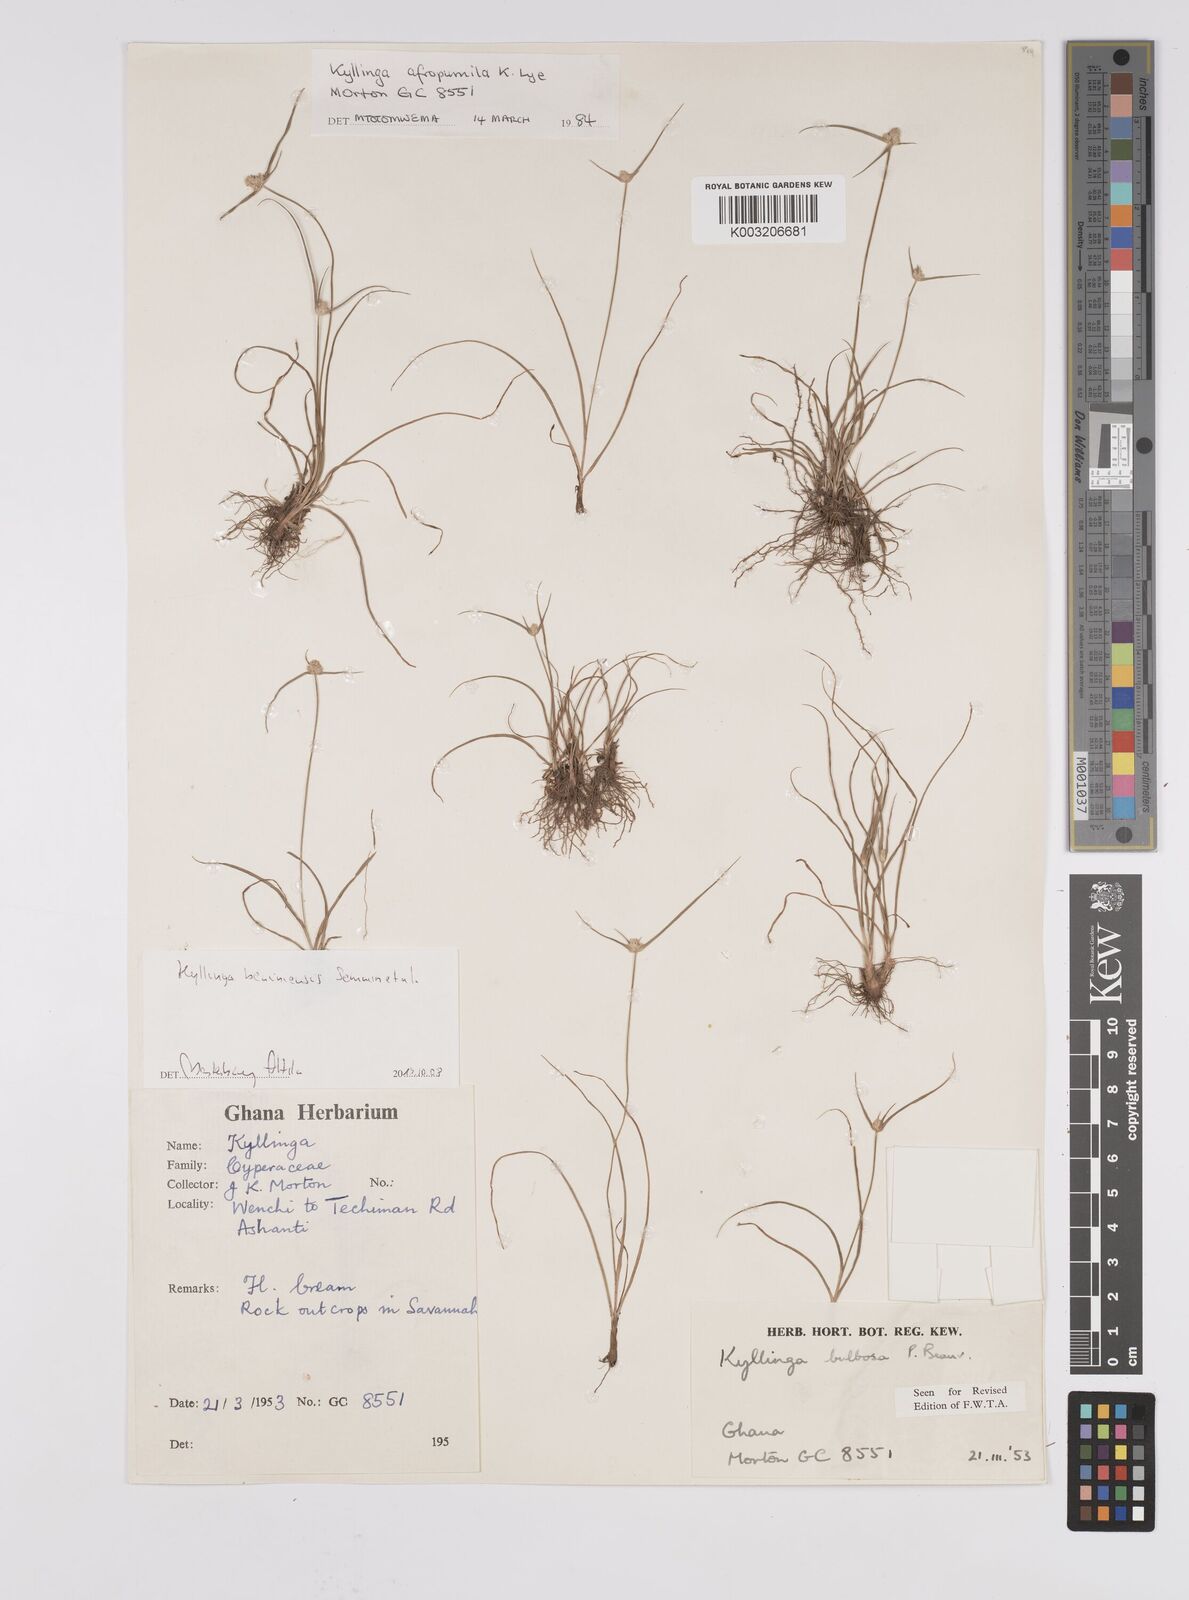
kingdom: Plantae
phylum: Tracheophyta
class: Liliopsida
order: Poales
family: Cyperaceae
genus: Cyperus
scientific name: Cyperus beninensis
